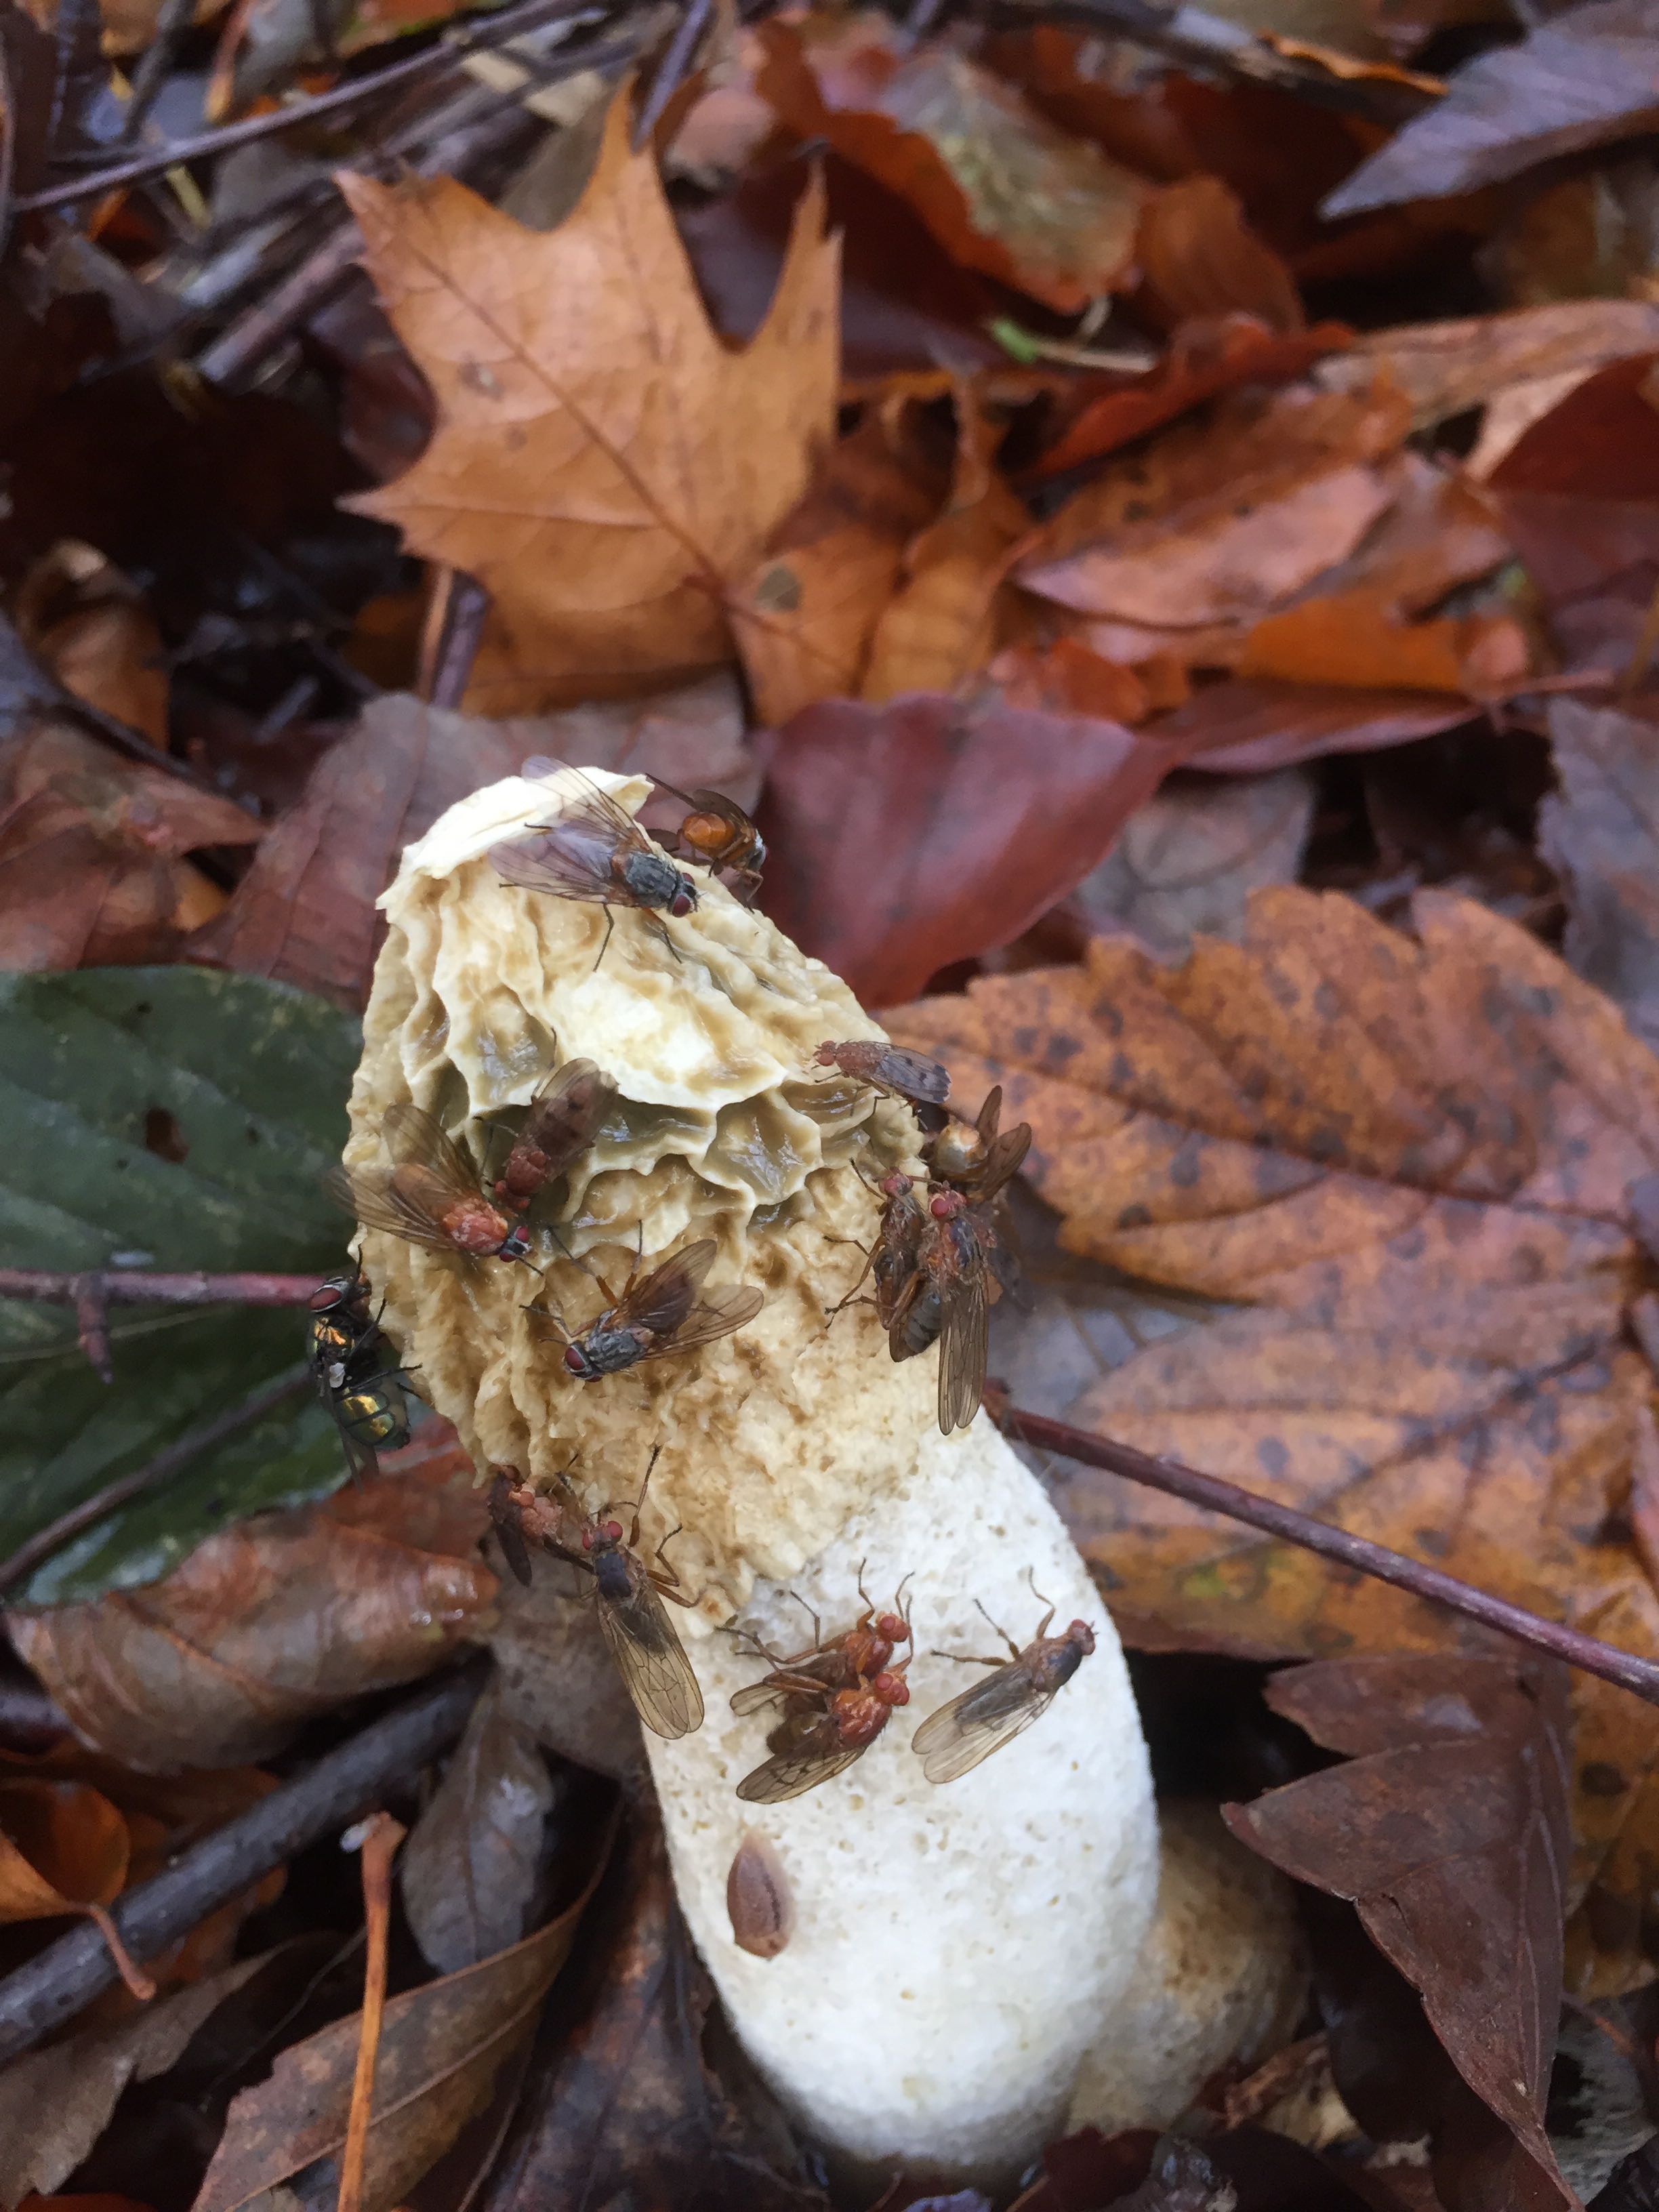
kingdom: Fungi
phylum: Basidiomycota
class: Agaricomycetes
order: Phallales
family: Phallaceae
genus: Phallus
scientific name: Phallus impudicus
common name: almindelig stinksvamp
